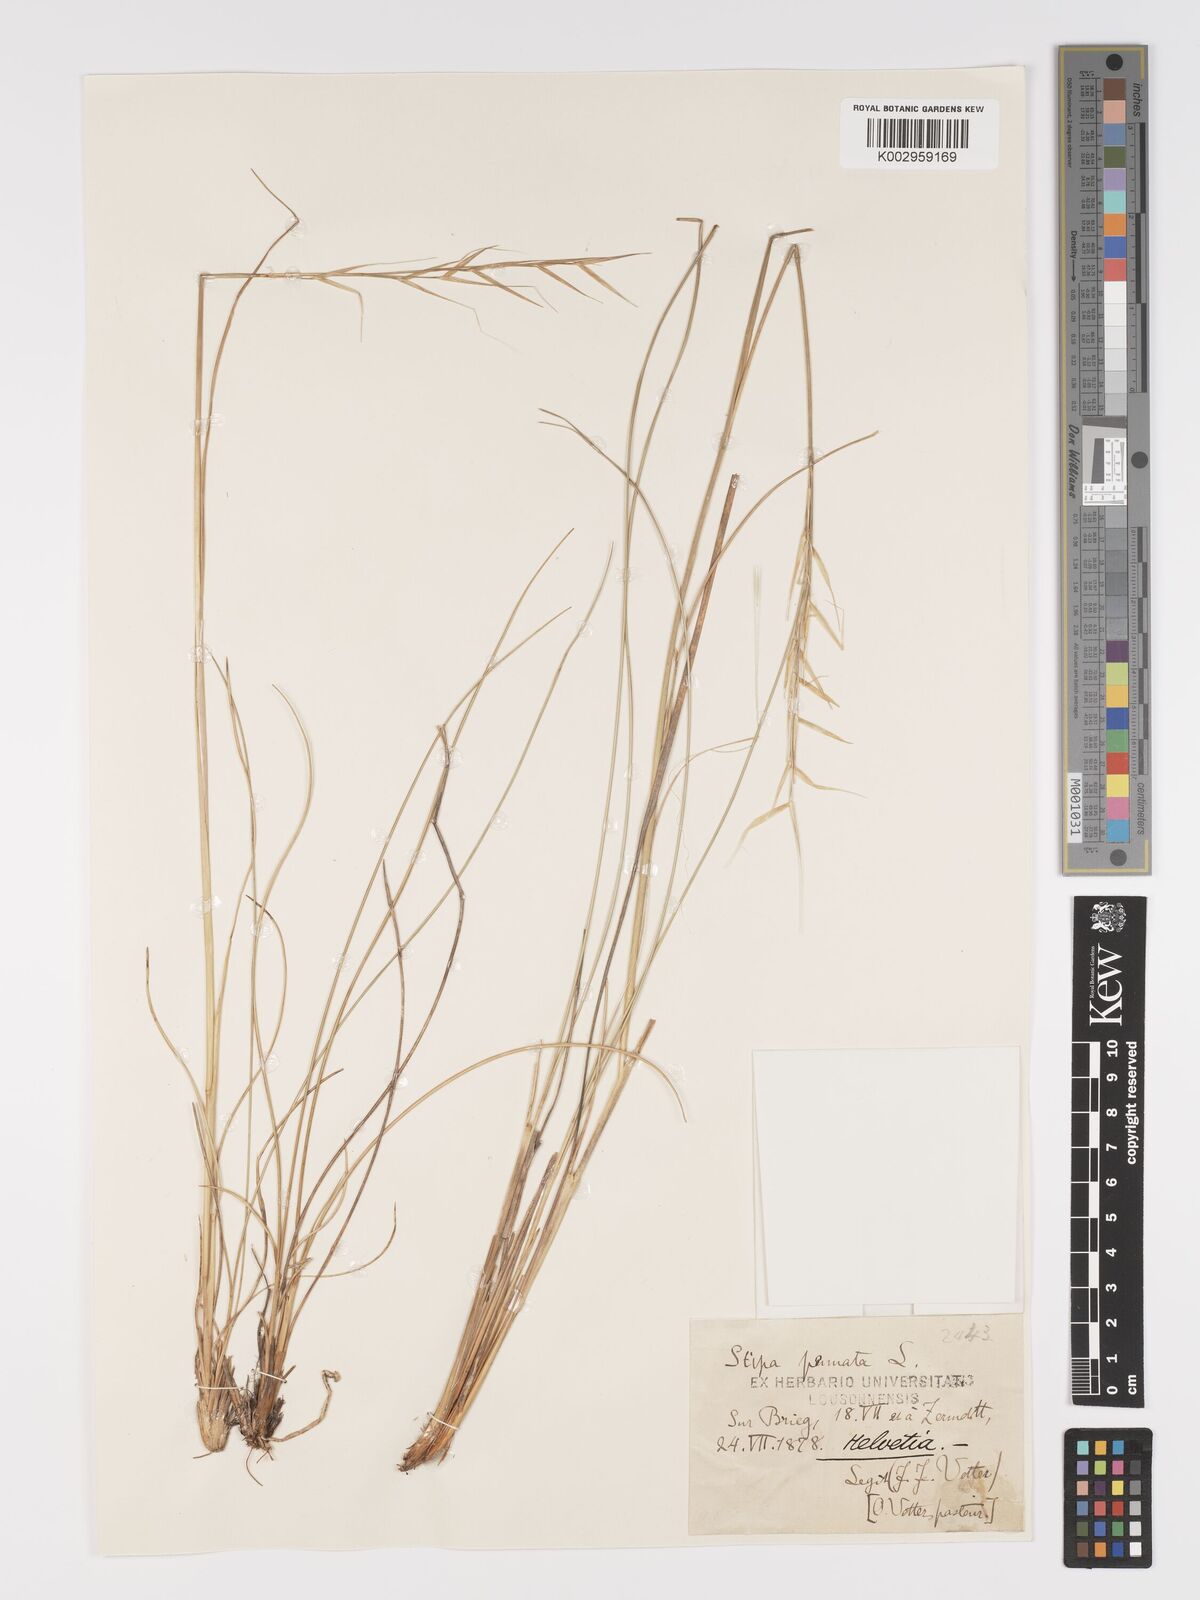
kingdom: Plantae
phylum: Tracheophyta
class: Liliopsida
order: Poales
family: Poaceae
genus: Stipa
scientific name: Stipa pennata
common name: European feather grass
